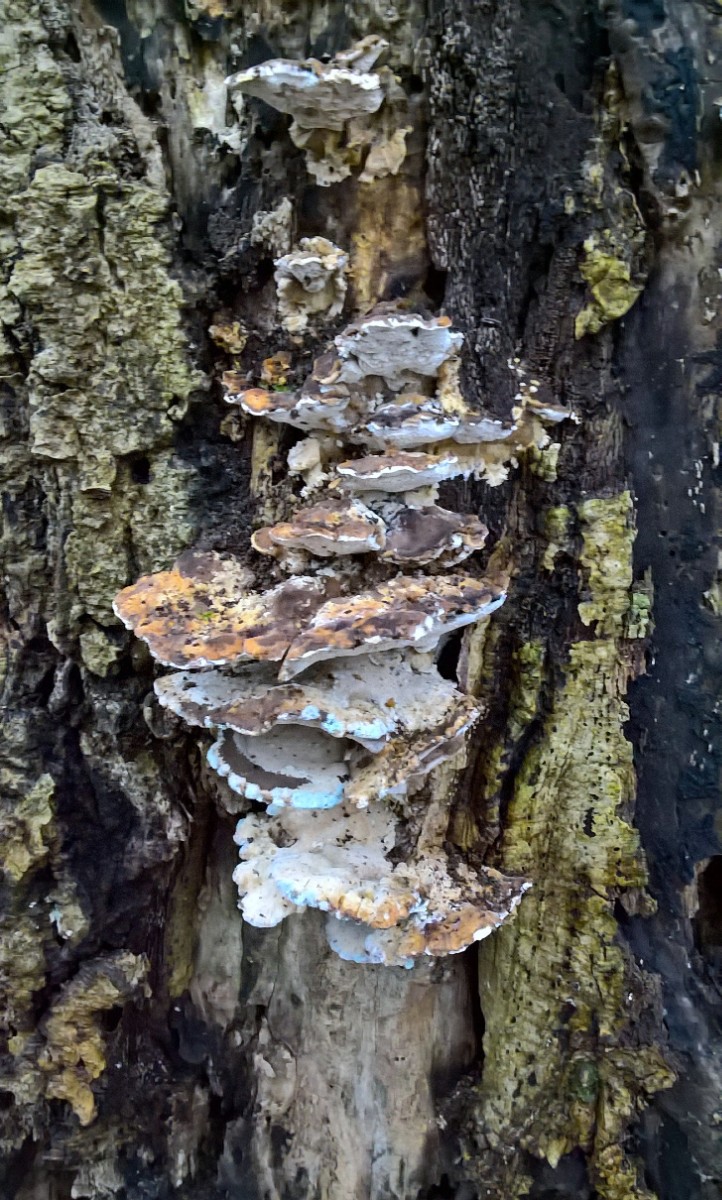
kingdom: Fungi
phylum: Basidiomycota
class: Agaricomycetes
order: Polyporales
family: Phanerochaetaceae
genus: Bjerkandera
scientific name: Bjerkandera fumosa
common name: grågul sodporesvamp
